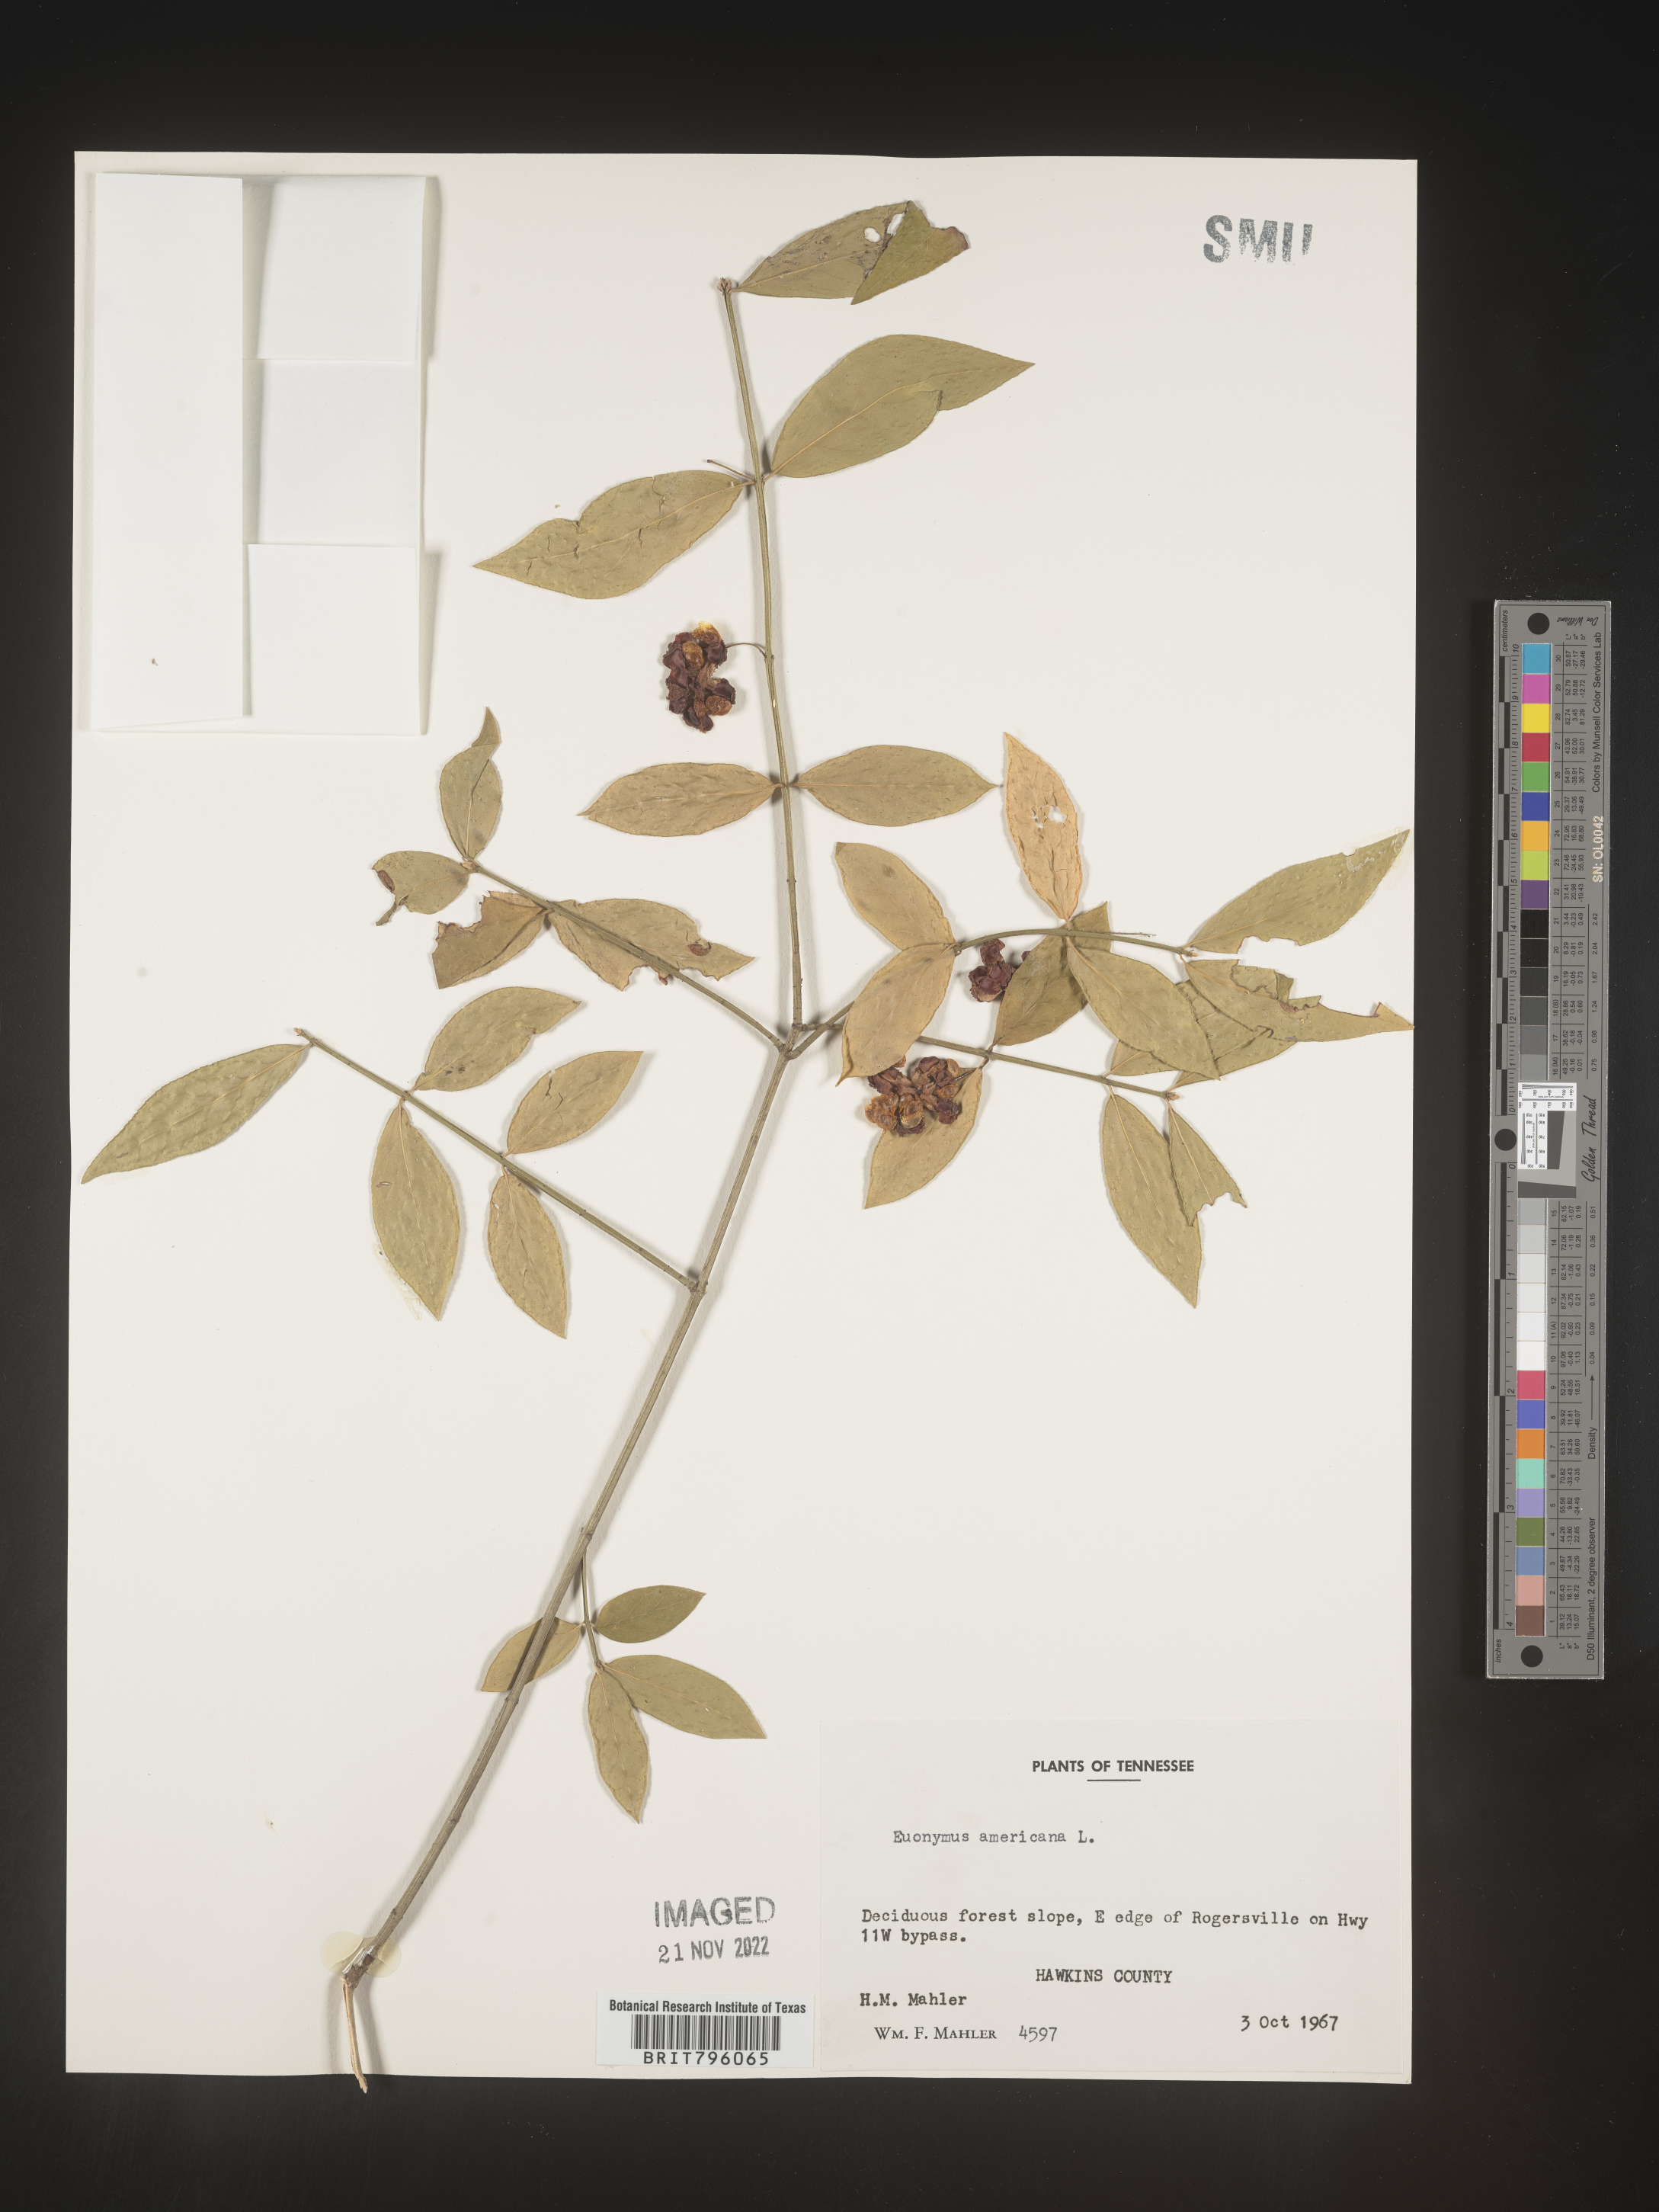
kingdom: Plantae
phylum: Tracheophyta
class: Magnoliopsida
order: Celastrales
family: Celastraceae
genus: Euonymus
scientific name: Euonymus americanus
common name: Bursting-heart
